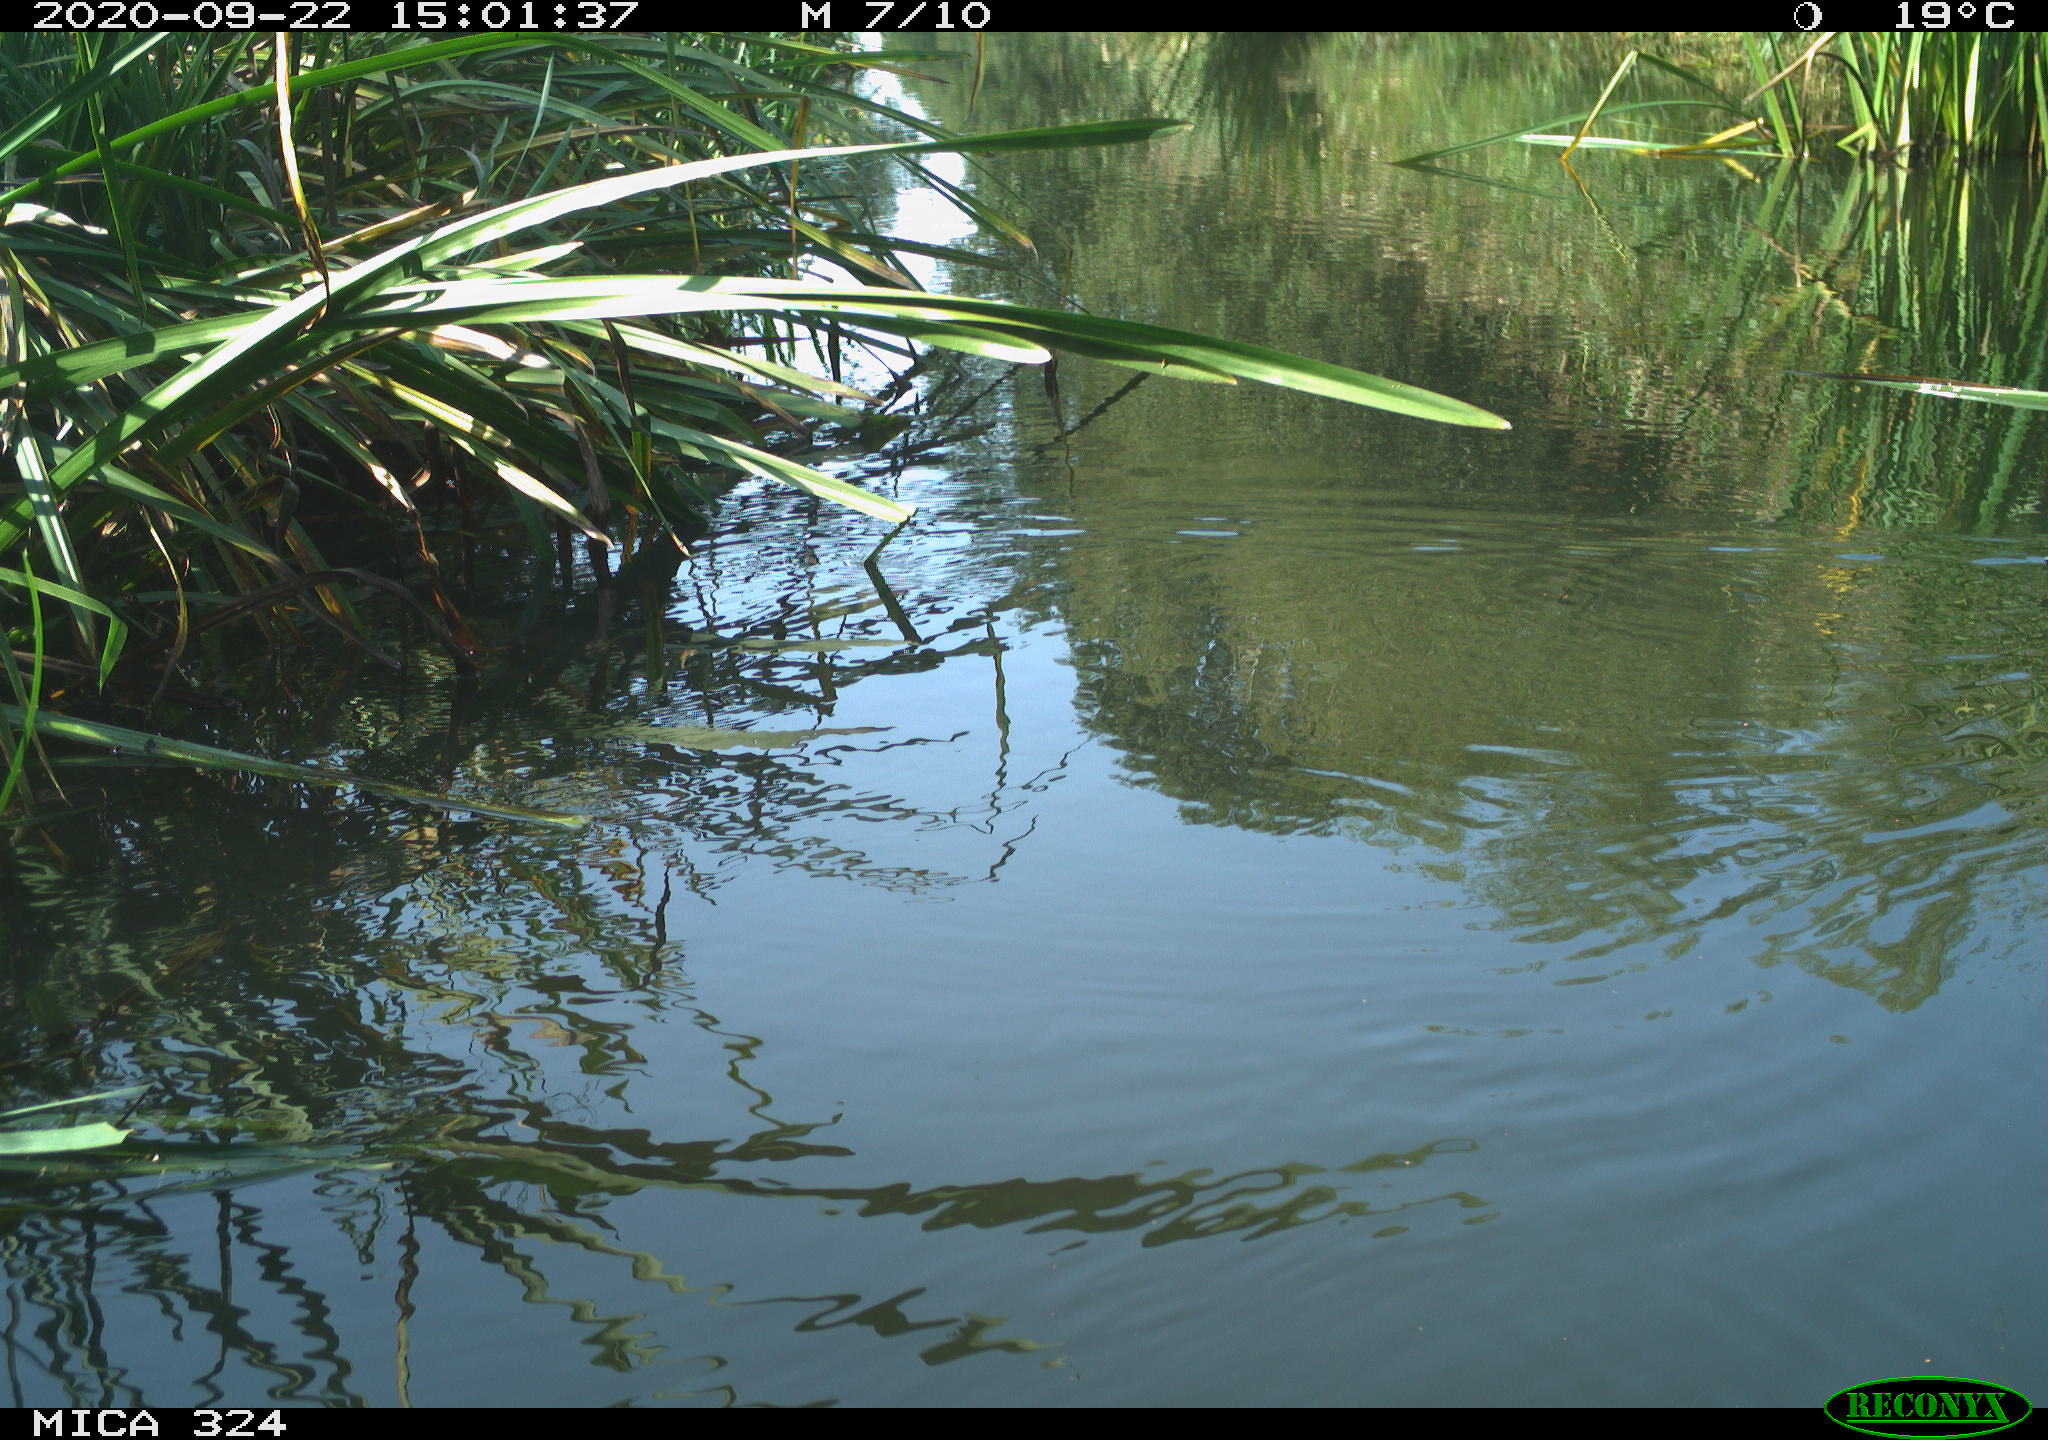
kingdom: Animalia
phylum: Chordata
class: Aves
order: Gruiformes
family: Rallidae
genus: Gallinula
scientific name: Gallinula chloropus
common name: Common moorhen
